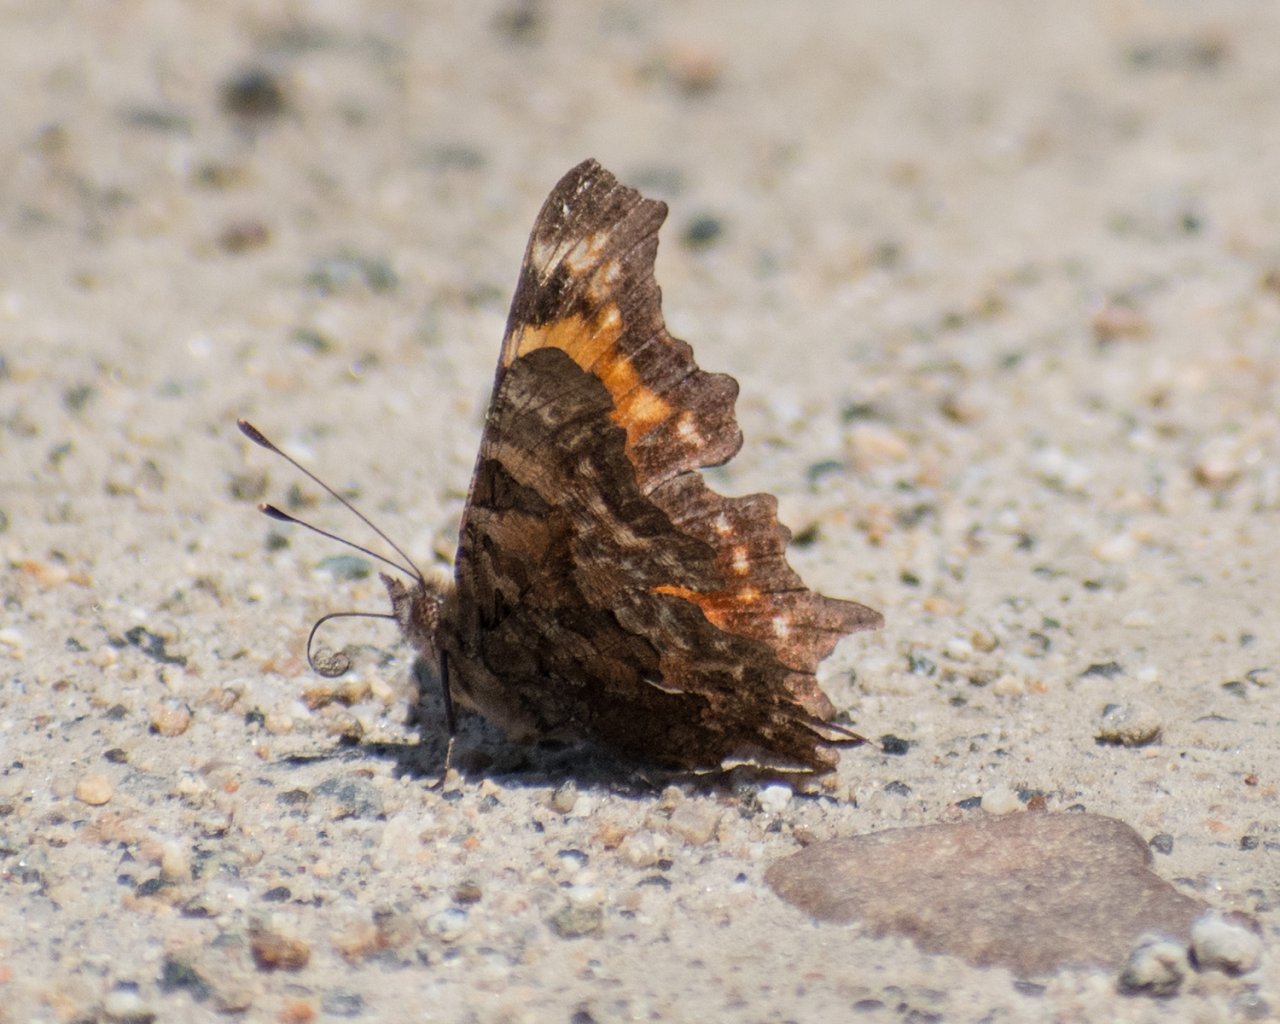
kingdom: Animalia
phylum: Arthropoda
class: Insecta
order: Lepidoptera
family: Nymphalidae
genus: Polygonia
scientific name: Polygonia faunus
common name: Green Comma
